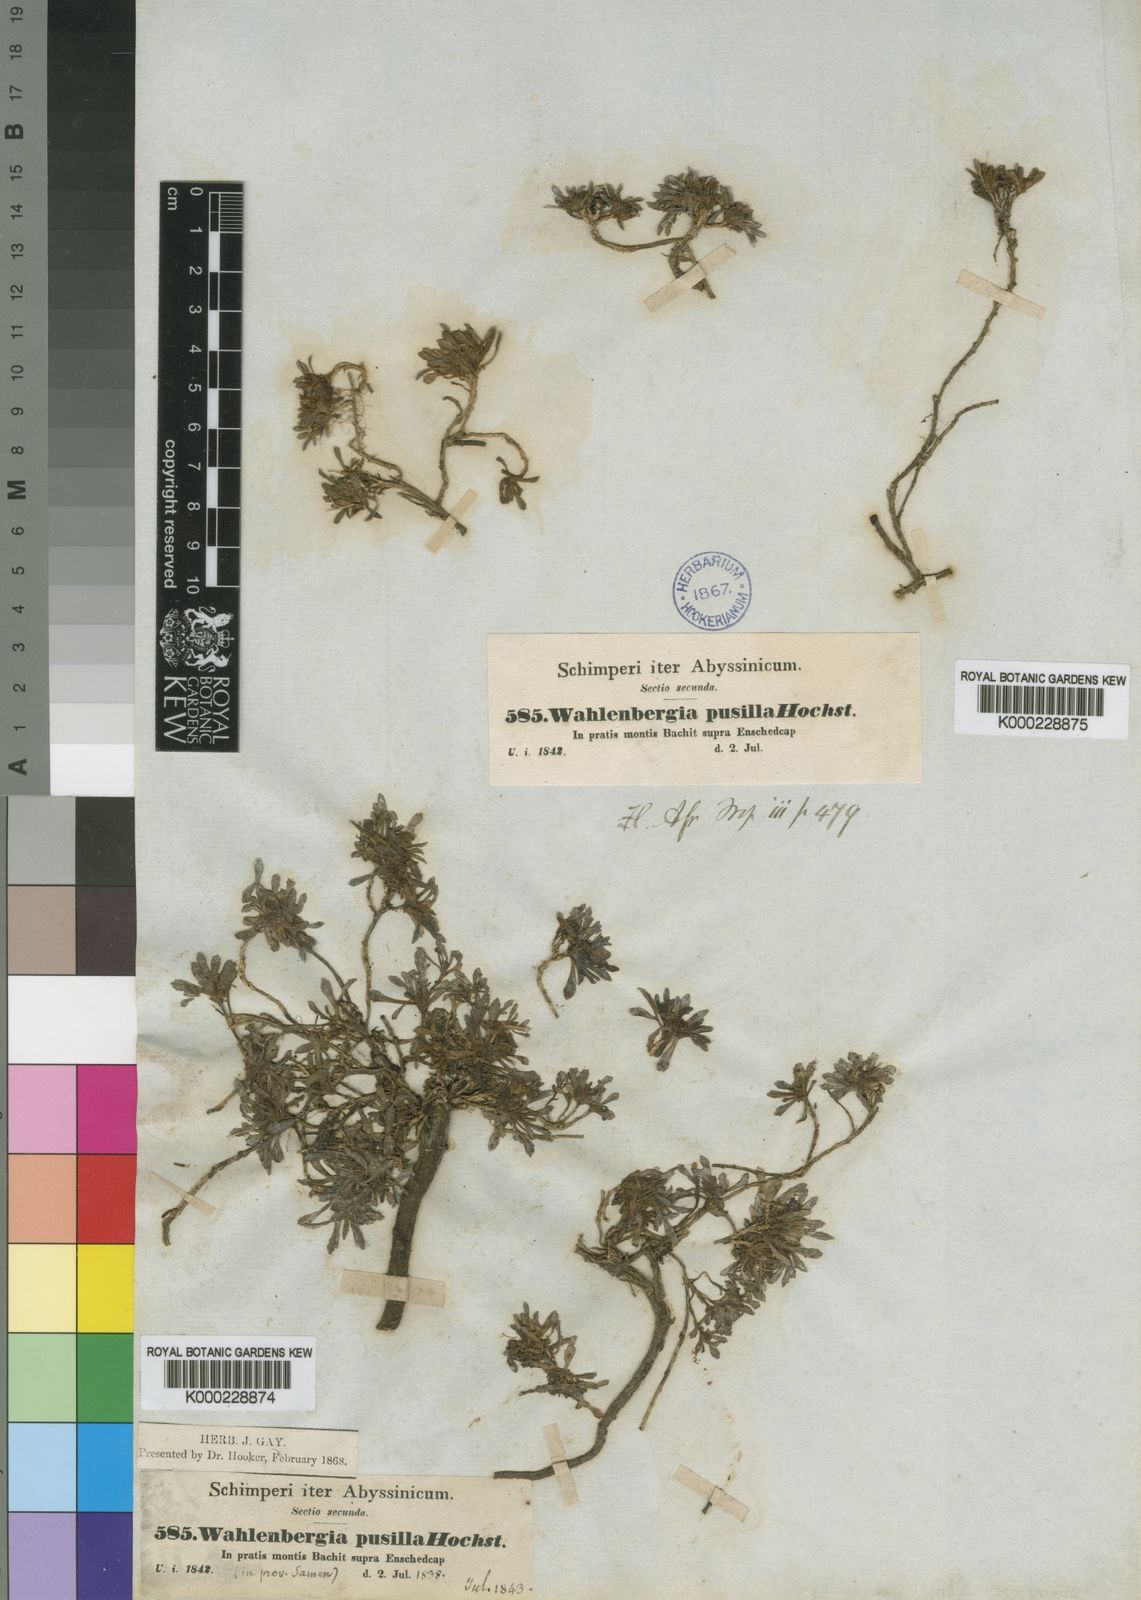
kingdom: Plantae
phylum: Tracheophyta
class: Magnoliopsida
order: Asterales
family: Campanulaceae
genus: Wahlenbergia
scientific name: Wahlenbergia pusilla
